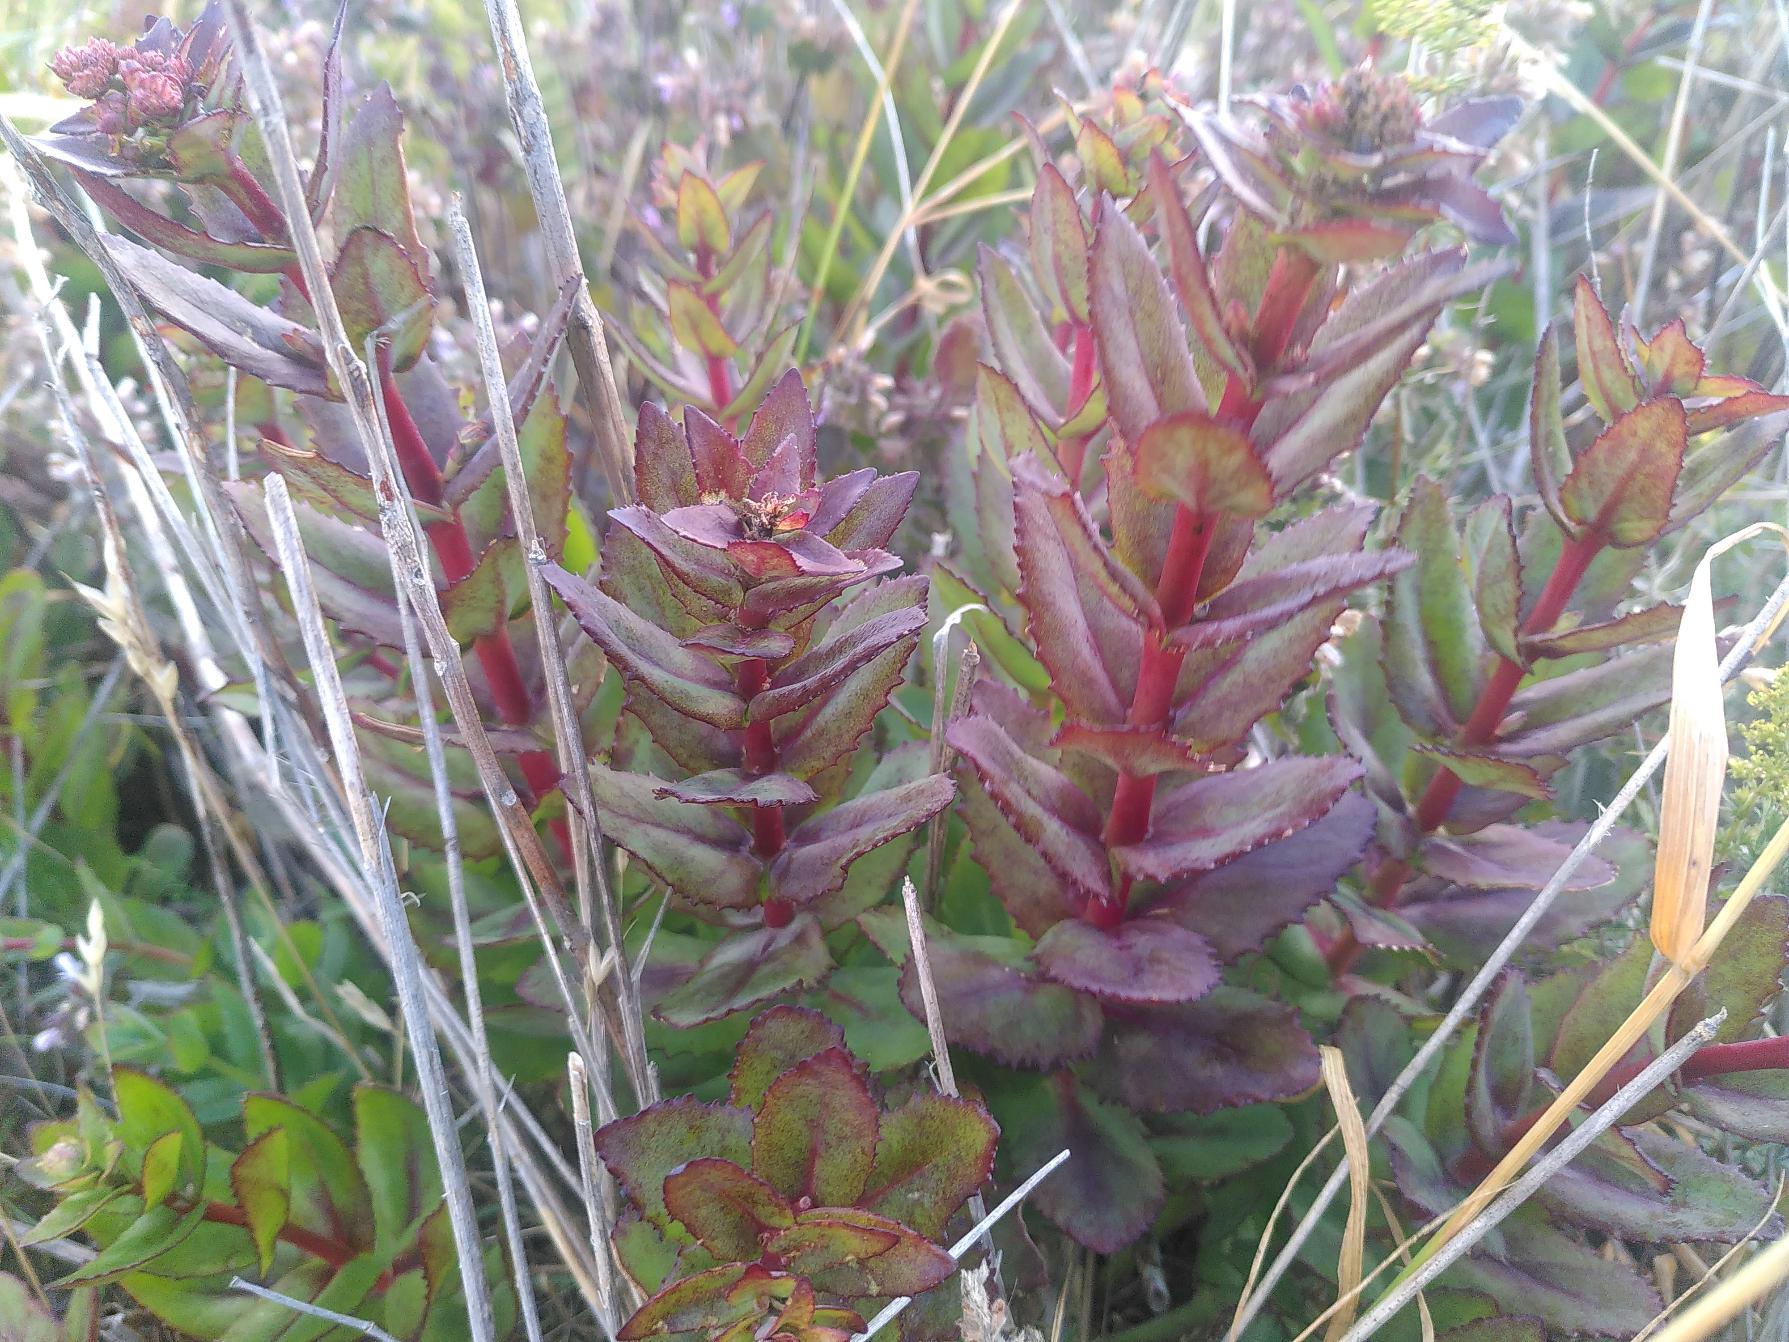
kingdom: Plantae
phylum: Tracheophyta
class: Magnoliopsida
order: Saxifragales
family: Crassulaceae
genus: Hylotelephium
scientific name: Hylotelephium maximum
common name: Almindelig sankthansurt
